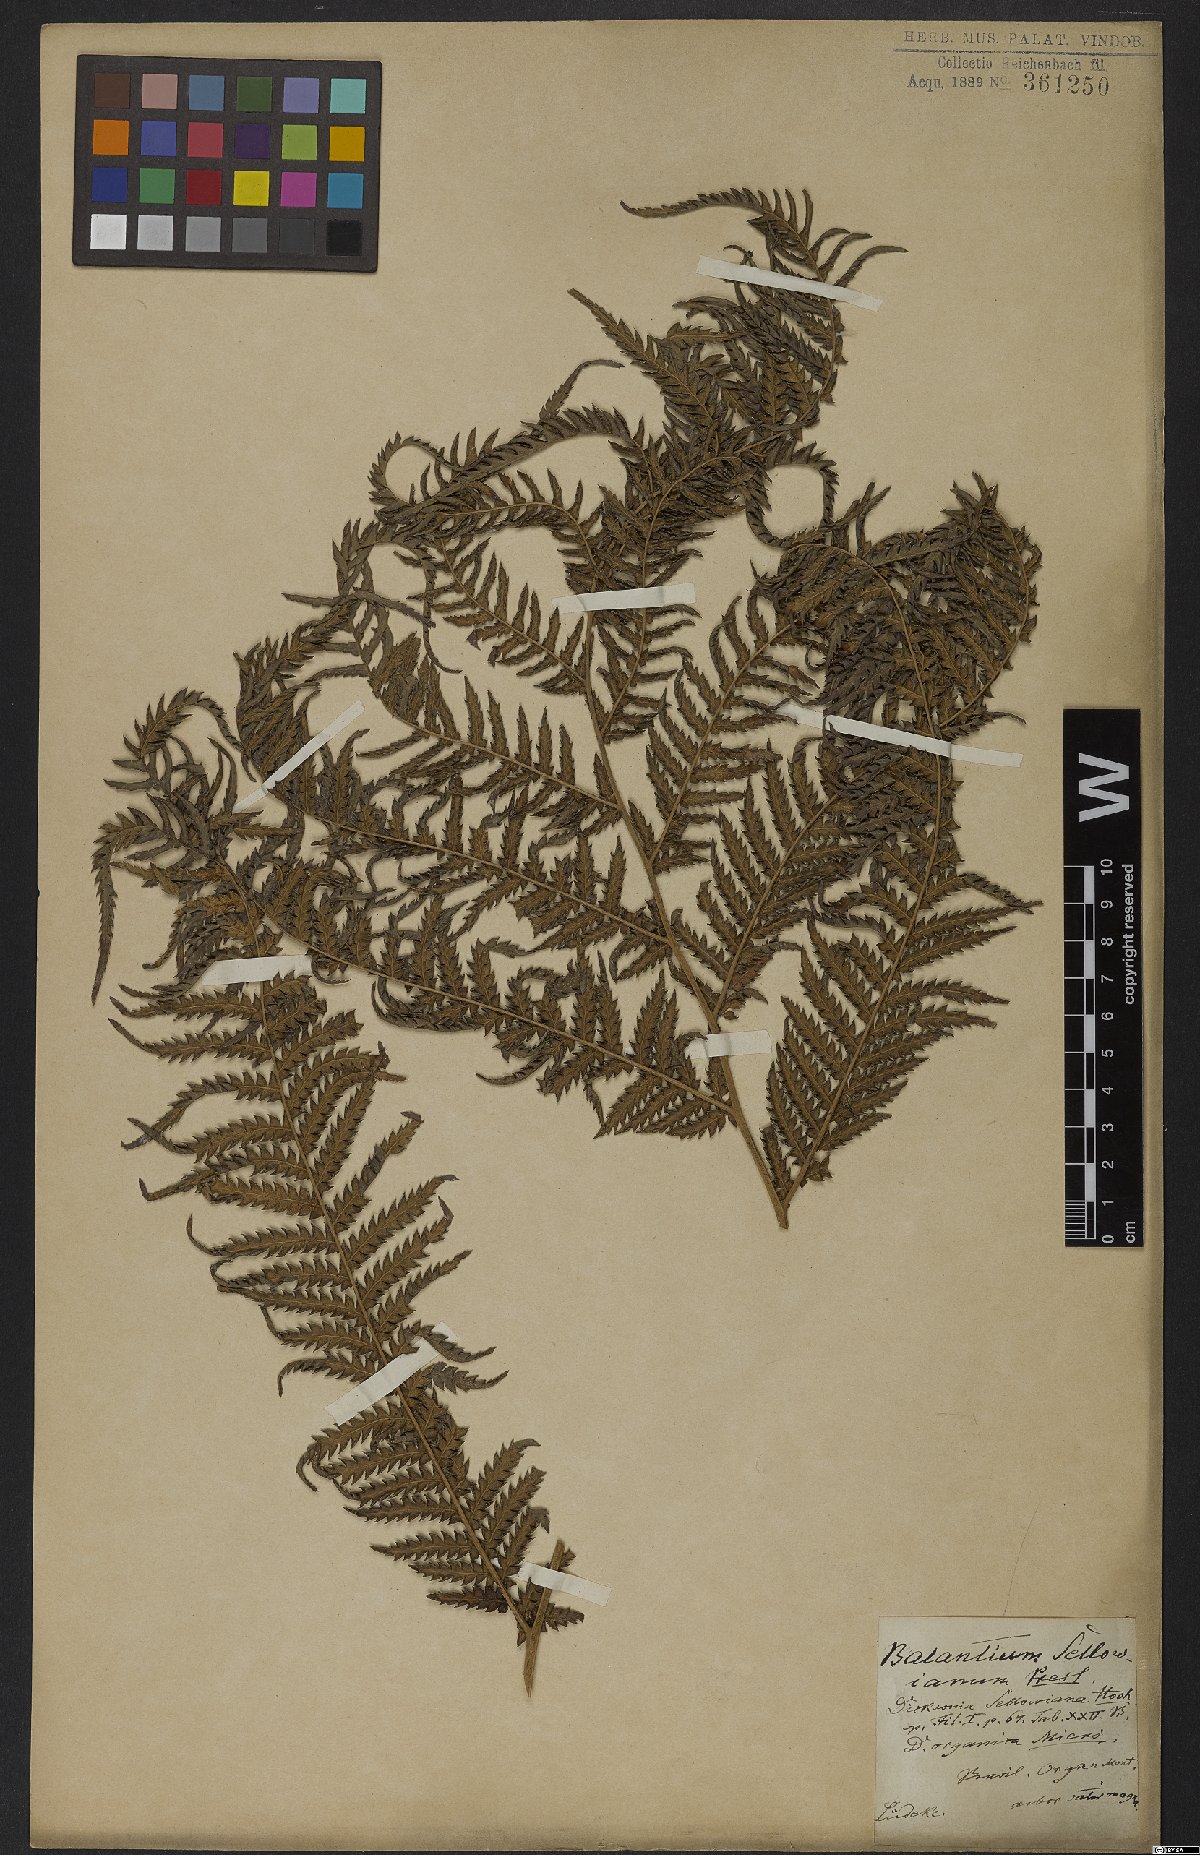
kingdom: Plantae
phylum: Tracheophyta
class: Polypodiopsida
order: Cyatheales
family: Dicksoniaceae
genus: Dicksonia
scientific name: Dicksonia sellowiana
